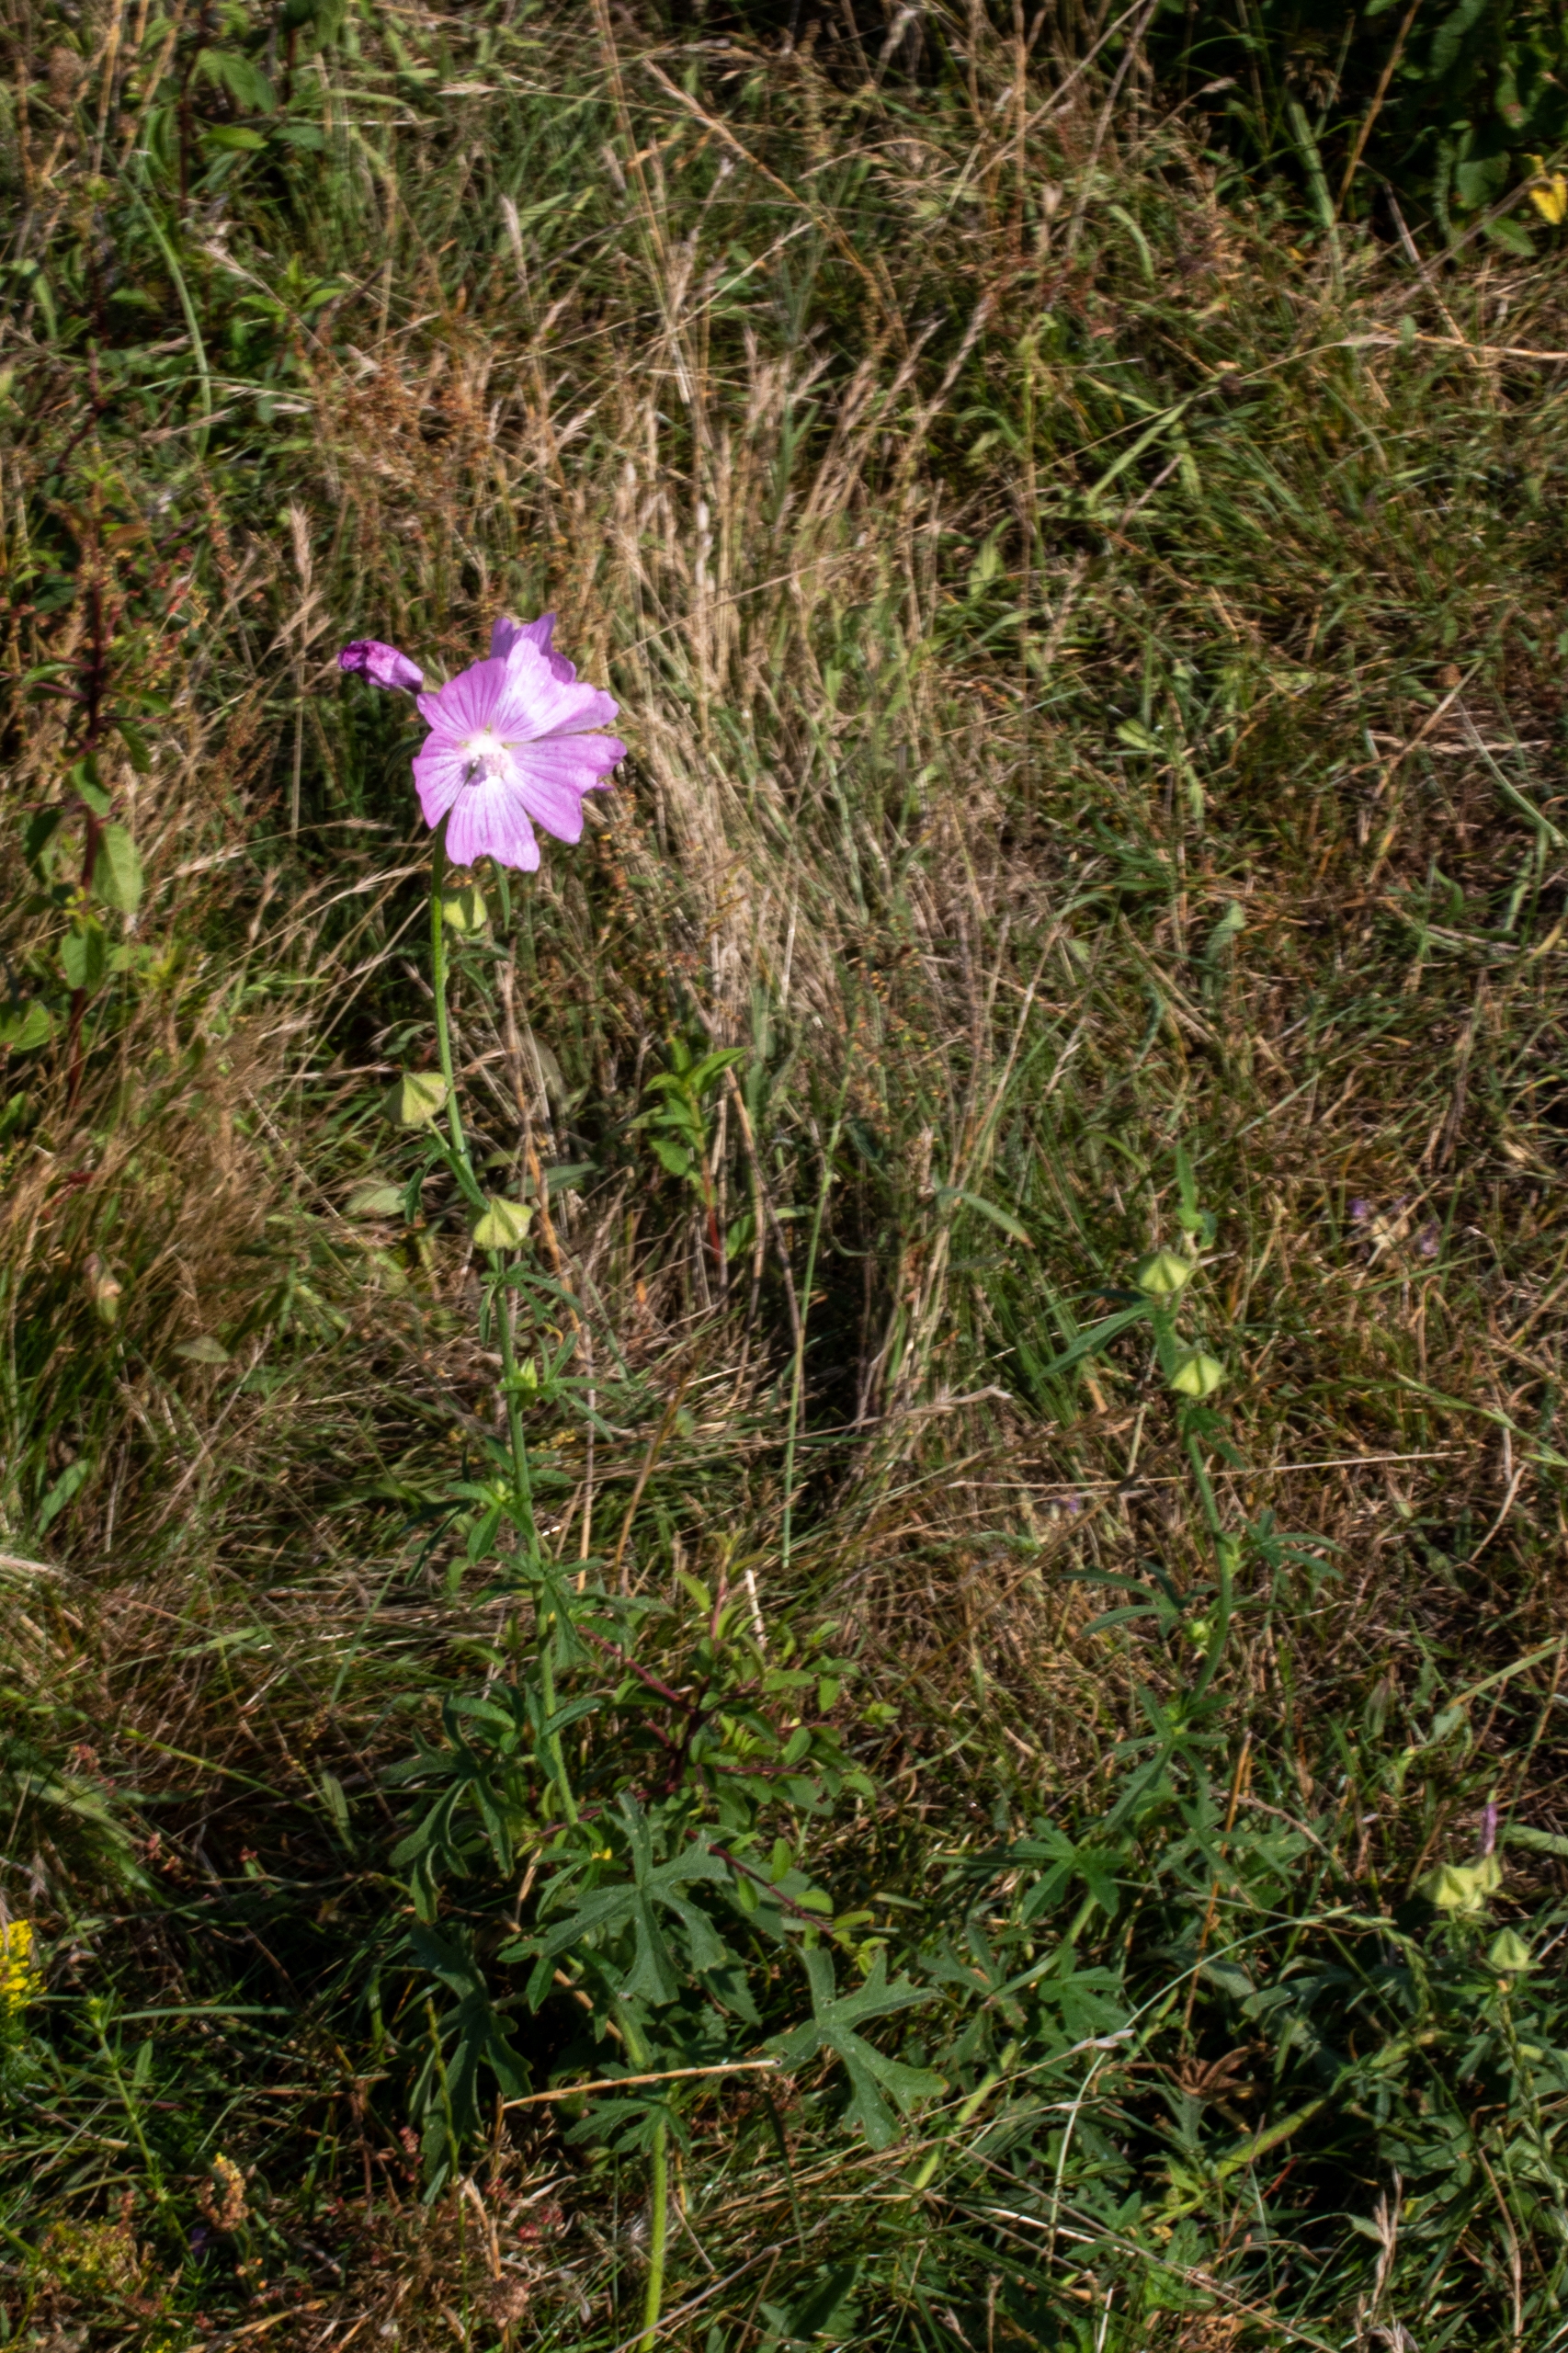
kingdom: Plantae
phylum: Tracheophyta
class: Magnoliopsida
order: Malvales
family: Malvaceae
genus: Malva
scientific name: Malva alcea
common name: Rosen-katost
